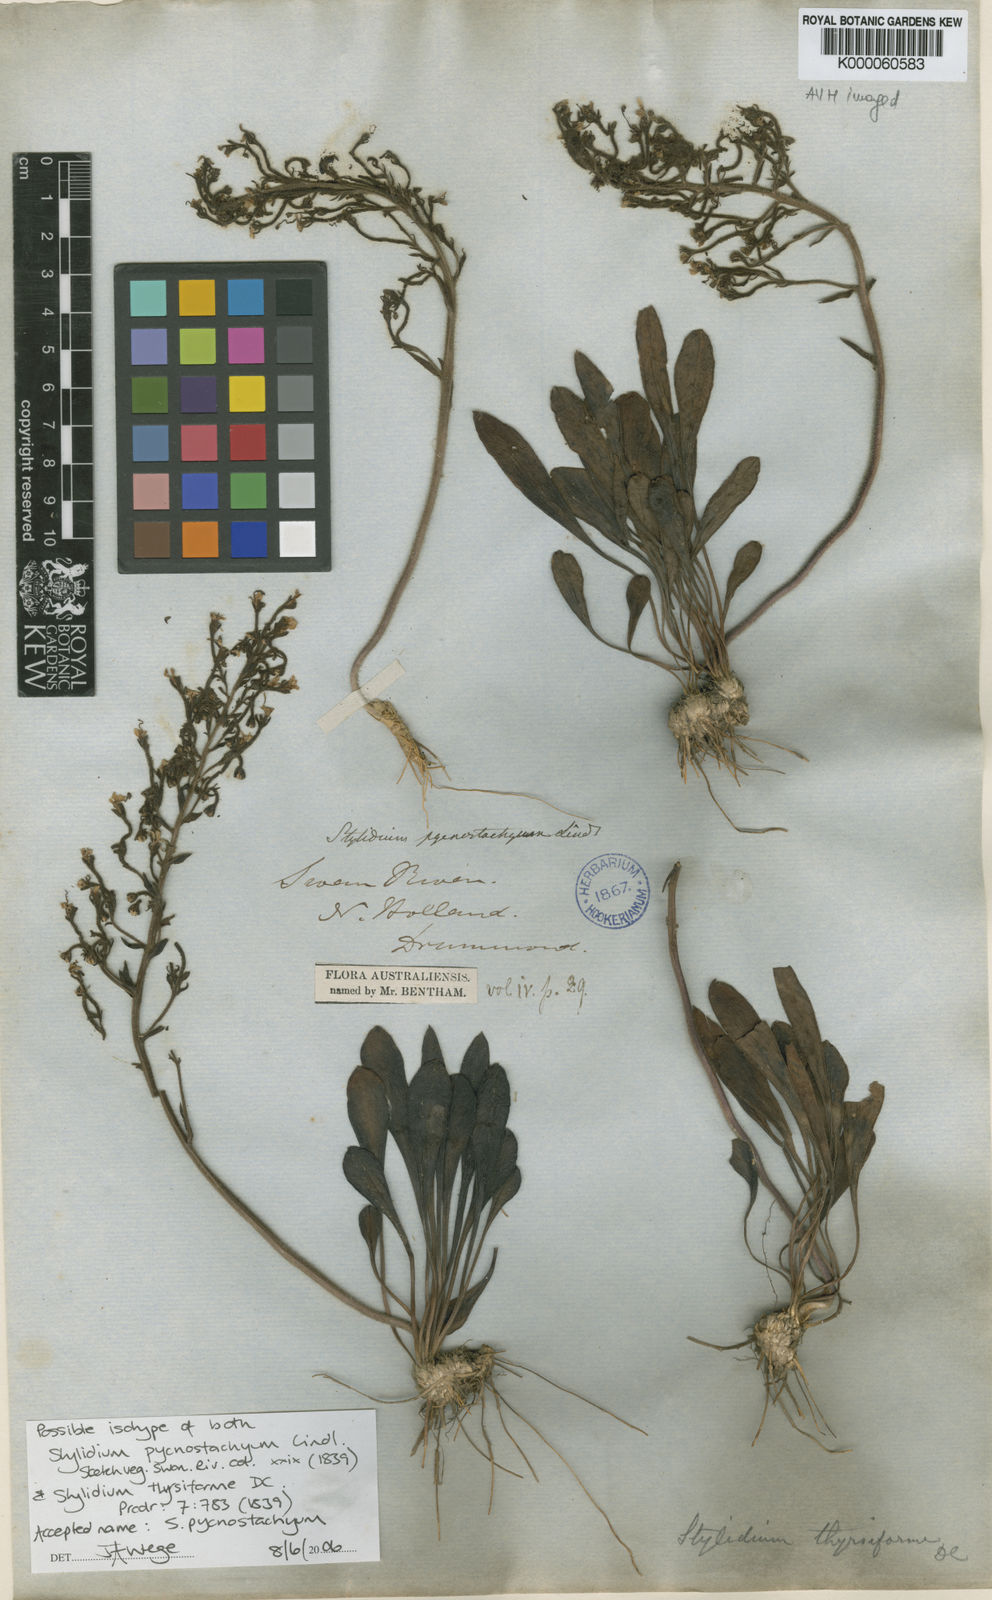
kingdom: Plantae
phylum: Tracheophyta
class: Magnoliopsida
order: Asterales
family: Stylidiaceae
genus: Stylidium
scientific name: Stylidium pycnostachyum
